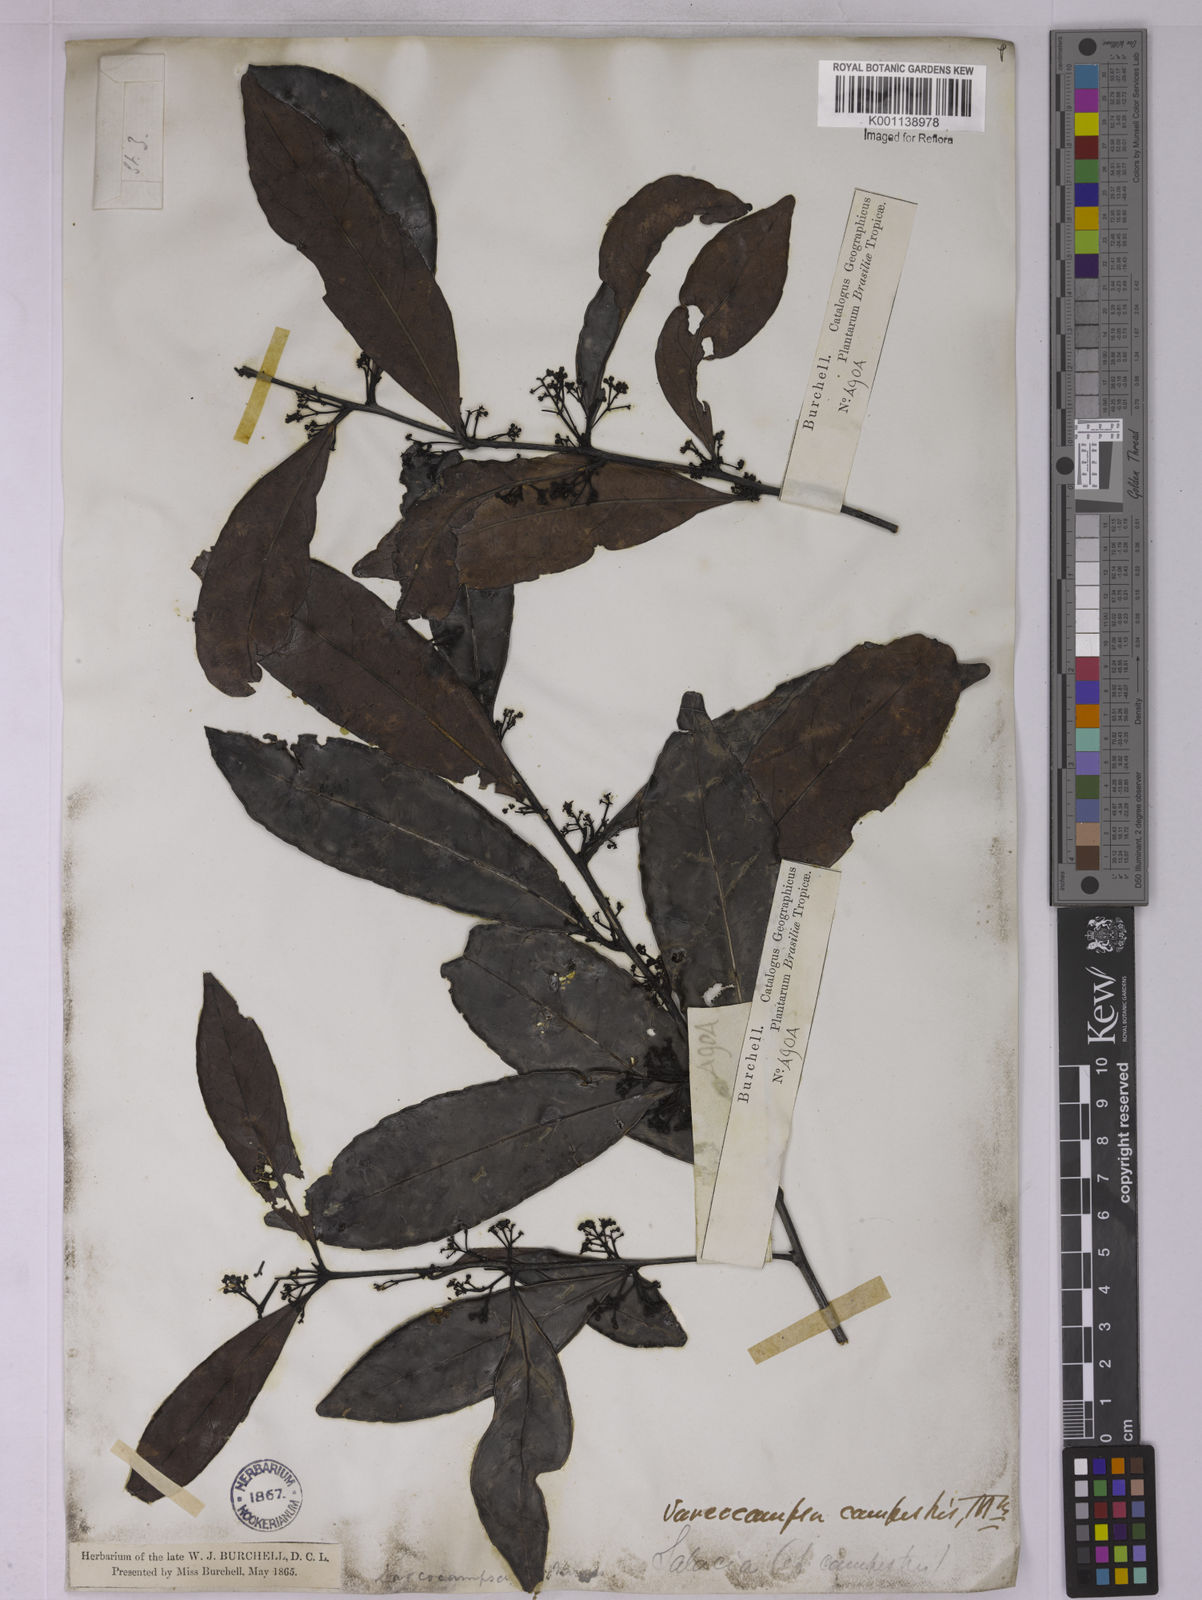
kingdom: Plantae
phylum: Tracheophyta
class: Magnoliopsida
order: Celastrales
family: Celastraceae
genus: Peritassa
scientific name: Peritassa campestris
